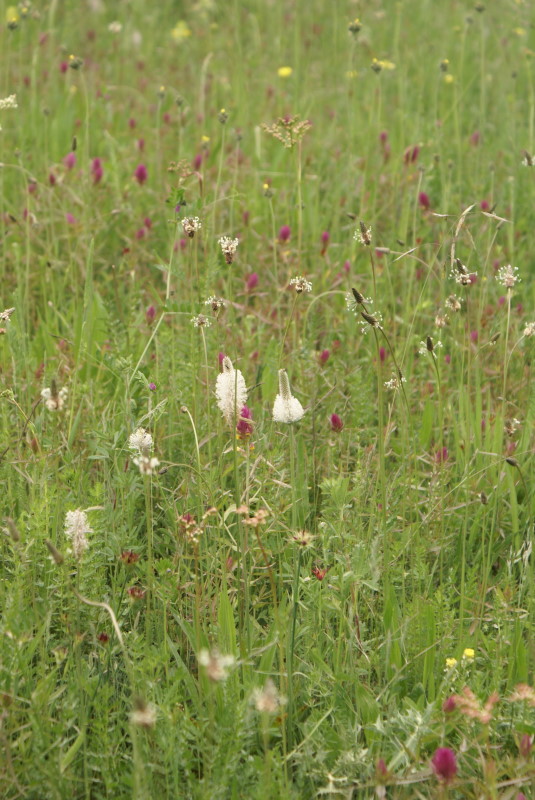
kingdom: Plantae
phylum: Tracheophyta
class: Magnoliopsida
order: Lamiales
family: Plantaginaceae
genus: Plantago
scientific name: Plantago
